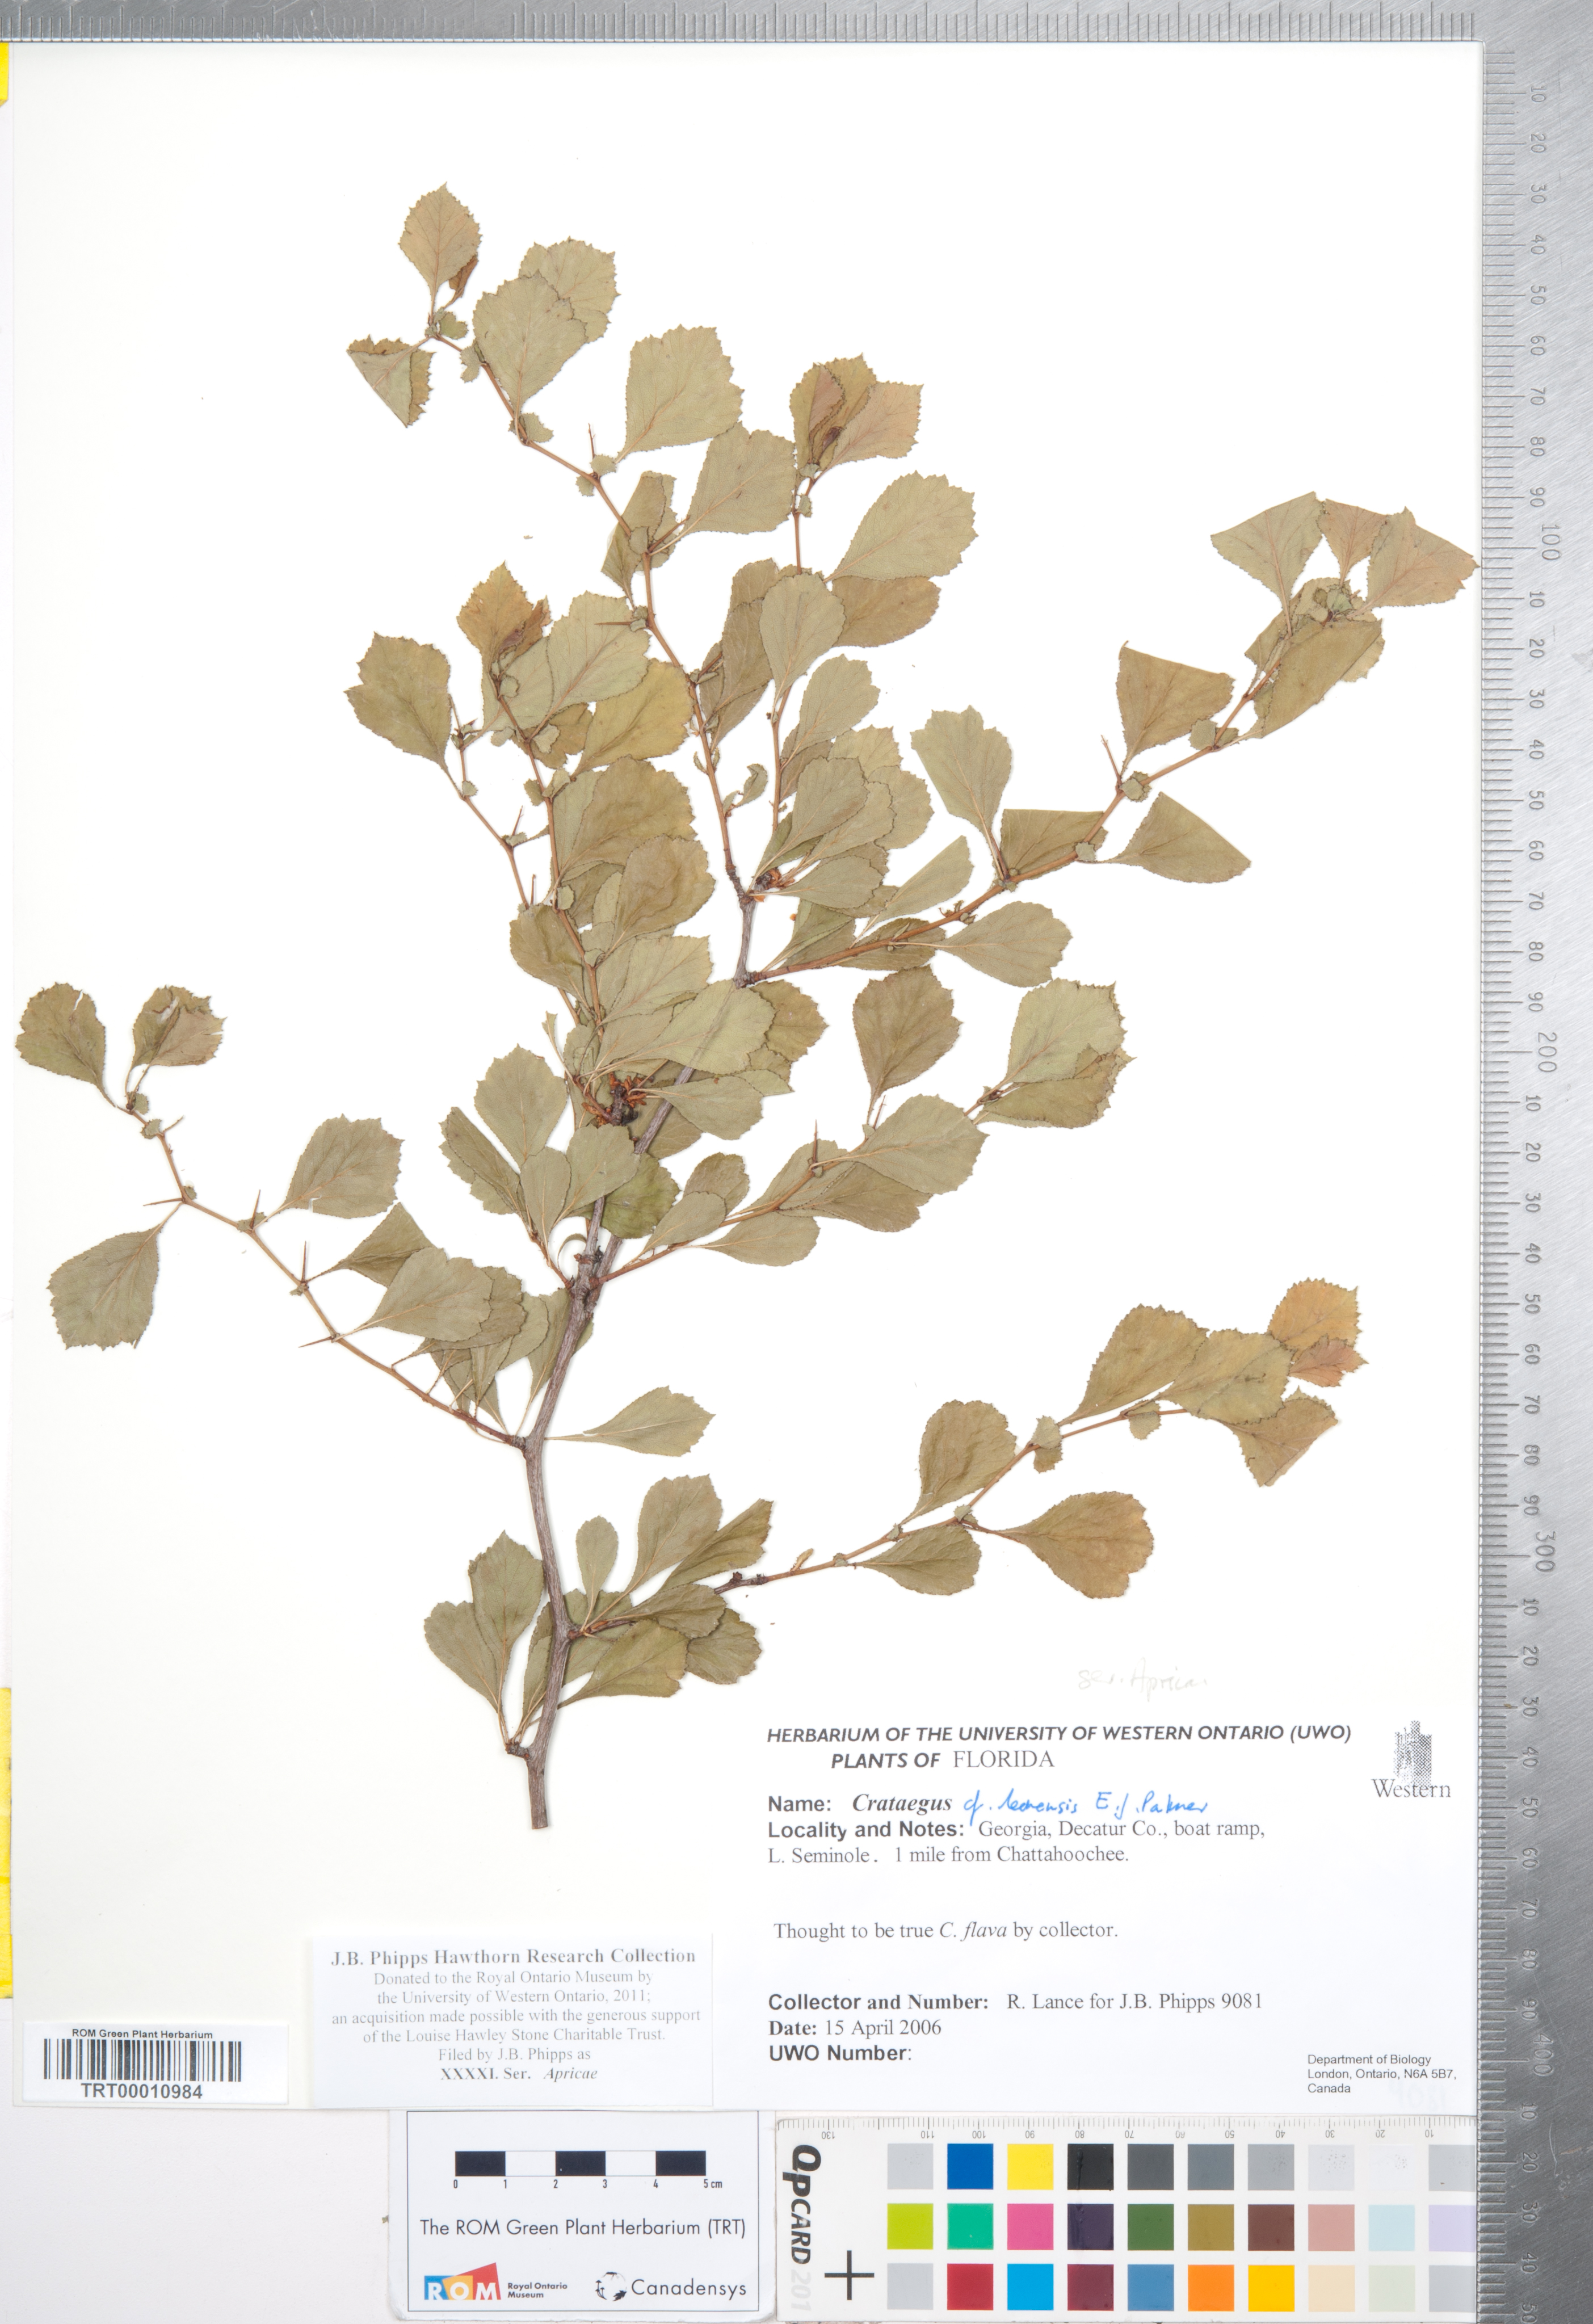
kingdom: Plantae
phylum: Tracheophyta
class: Magnoliopsida
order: Rosales
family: Rosaceae
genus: Crataegus
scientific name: Crataegus
